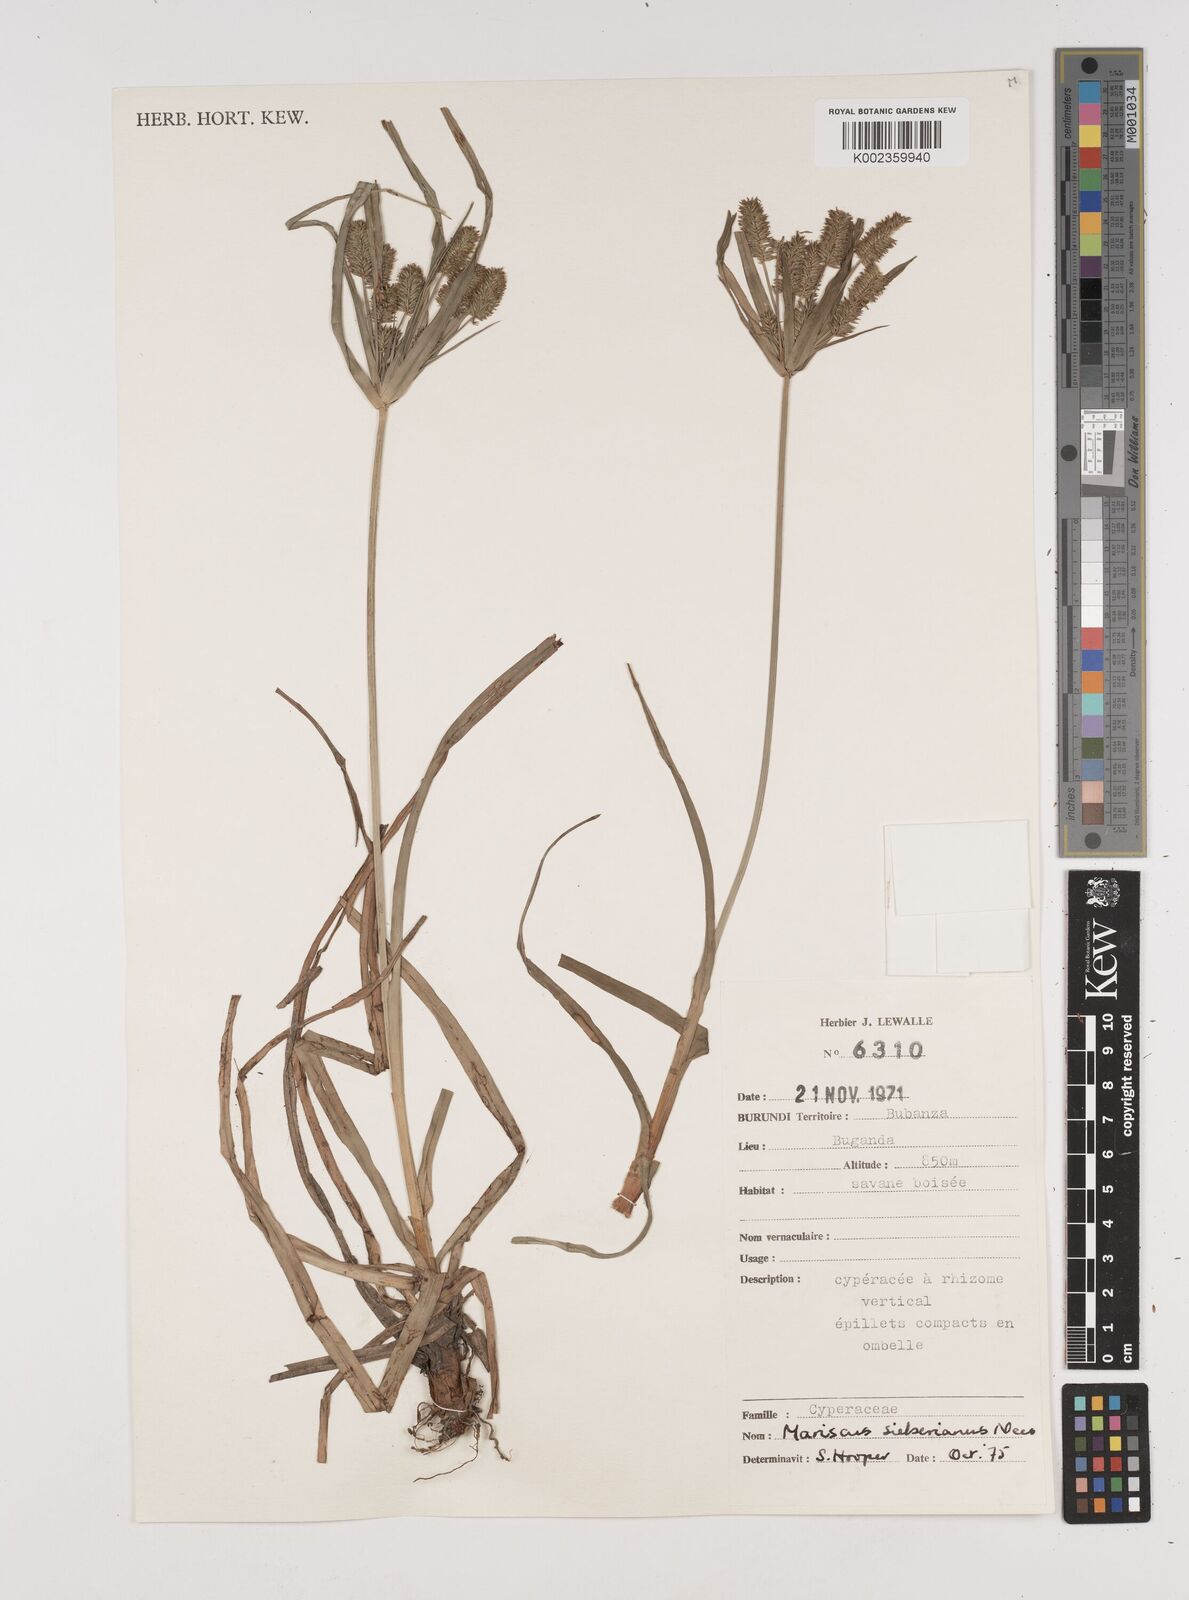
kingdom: Plantae
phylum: Tracheophyta
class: Liliopsida
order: Poales
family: Cyperaceae
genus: Cyperus
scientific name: Cyperus cyperoides
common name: Pacific island flat sedge
